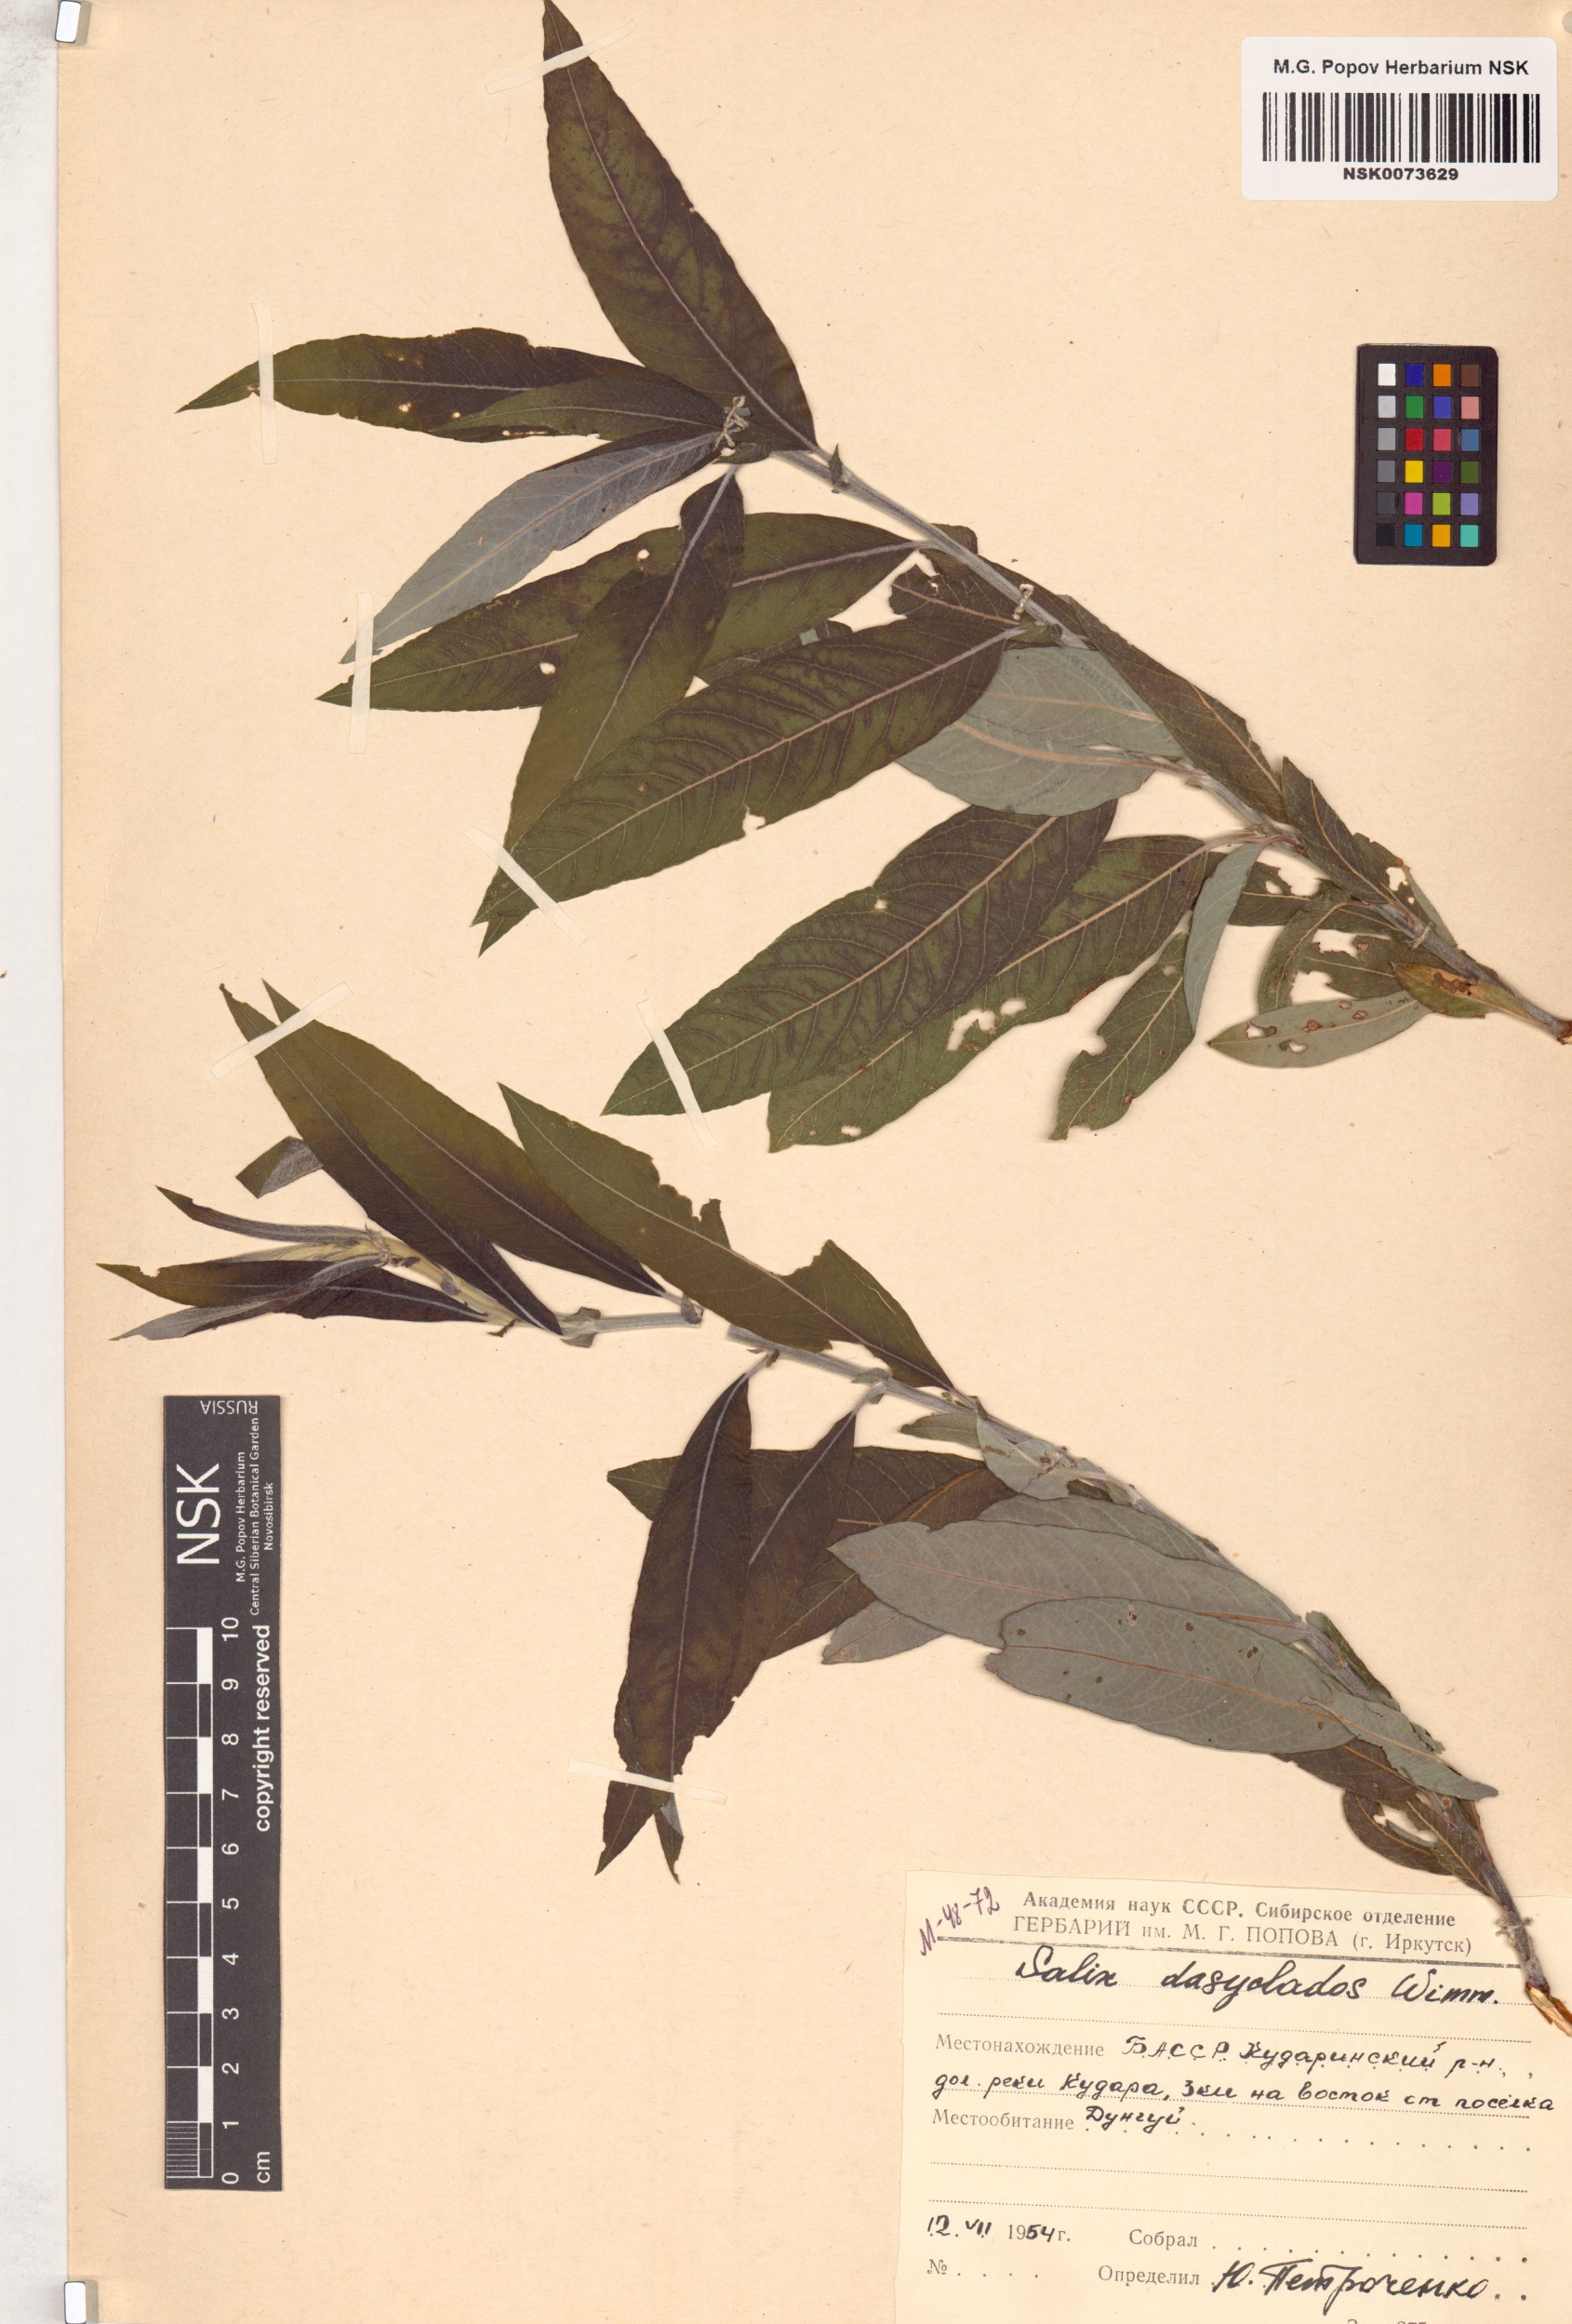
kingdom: Plantae
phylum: Tracheophyta
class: Magnoliopsida
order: Malpighiales
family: Salicaceae
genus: Salix
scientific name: Salix gmelinii
